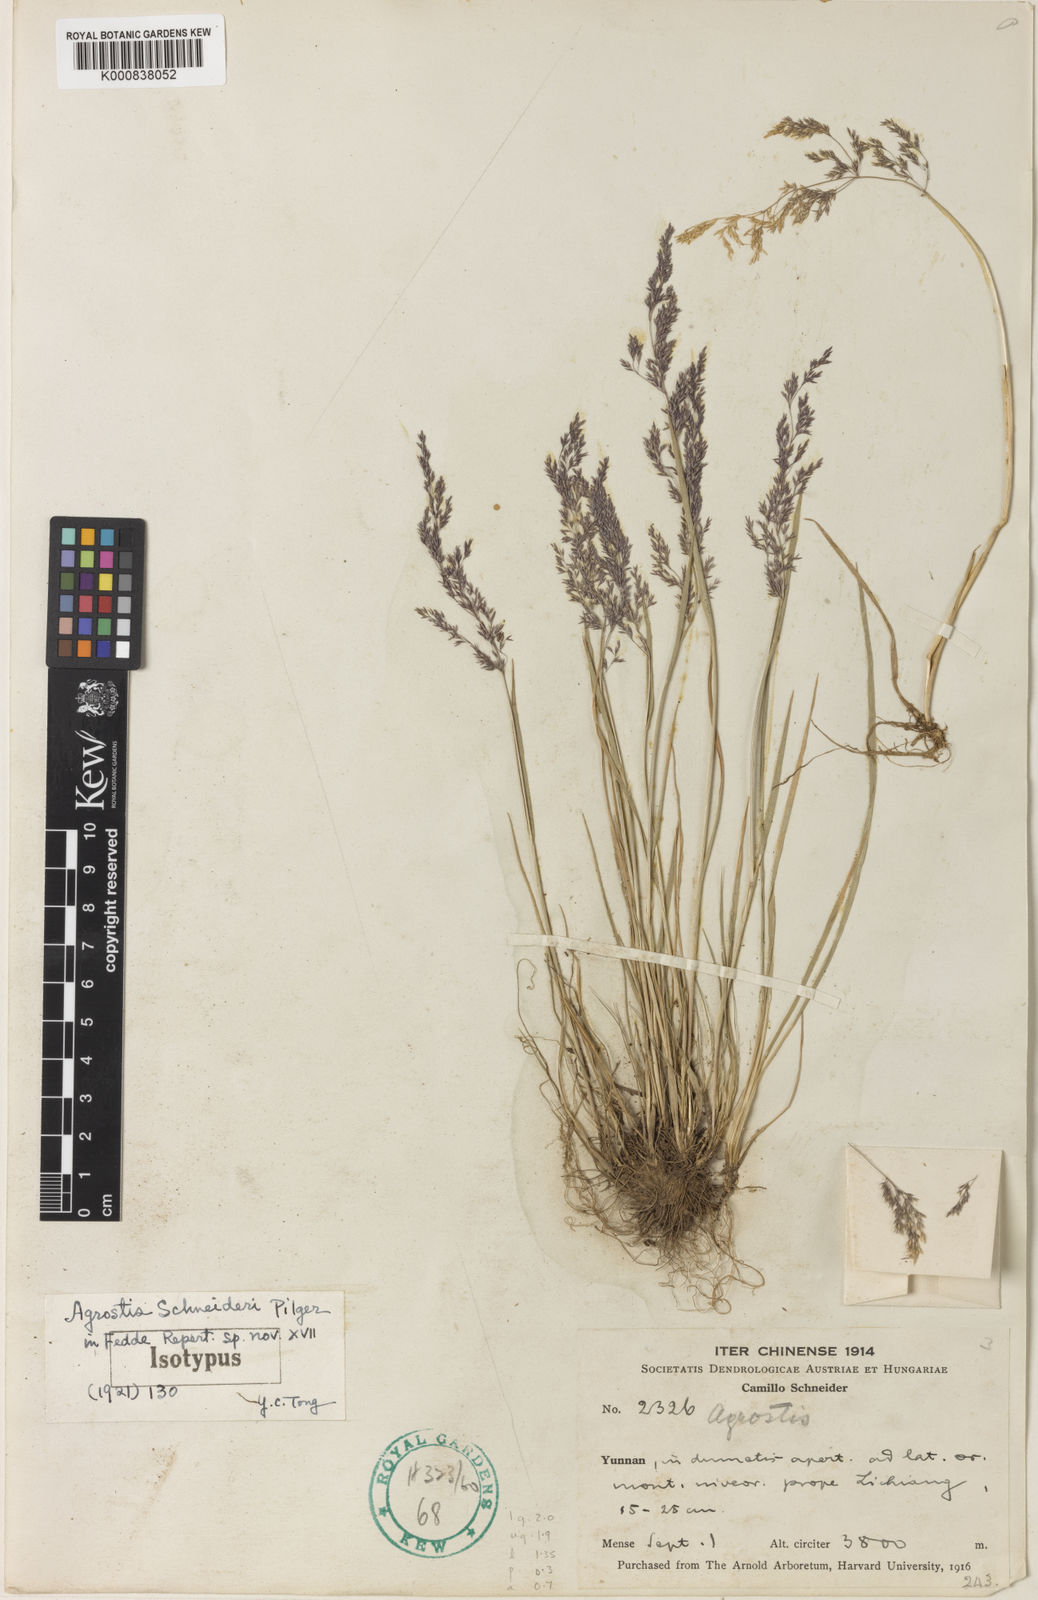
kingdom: Plantae
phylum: Tracheophyta
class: Liliopsida
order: Poales
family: Poaceae
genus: Agrostis
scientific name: Agrostis nervosa
